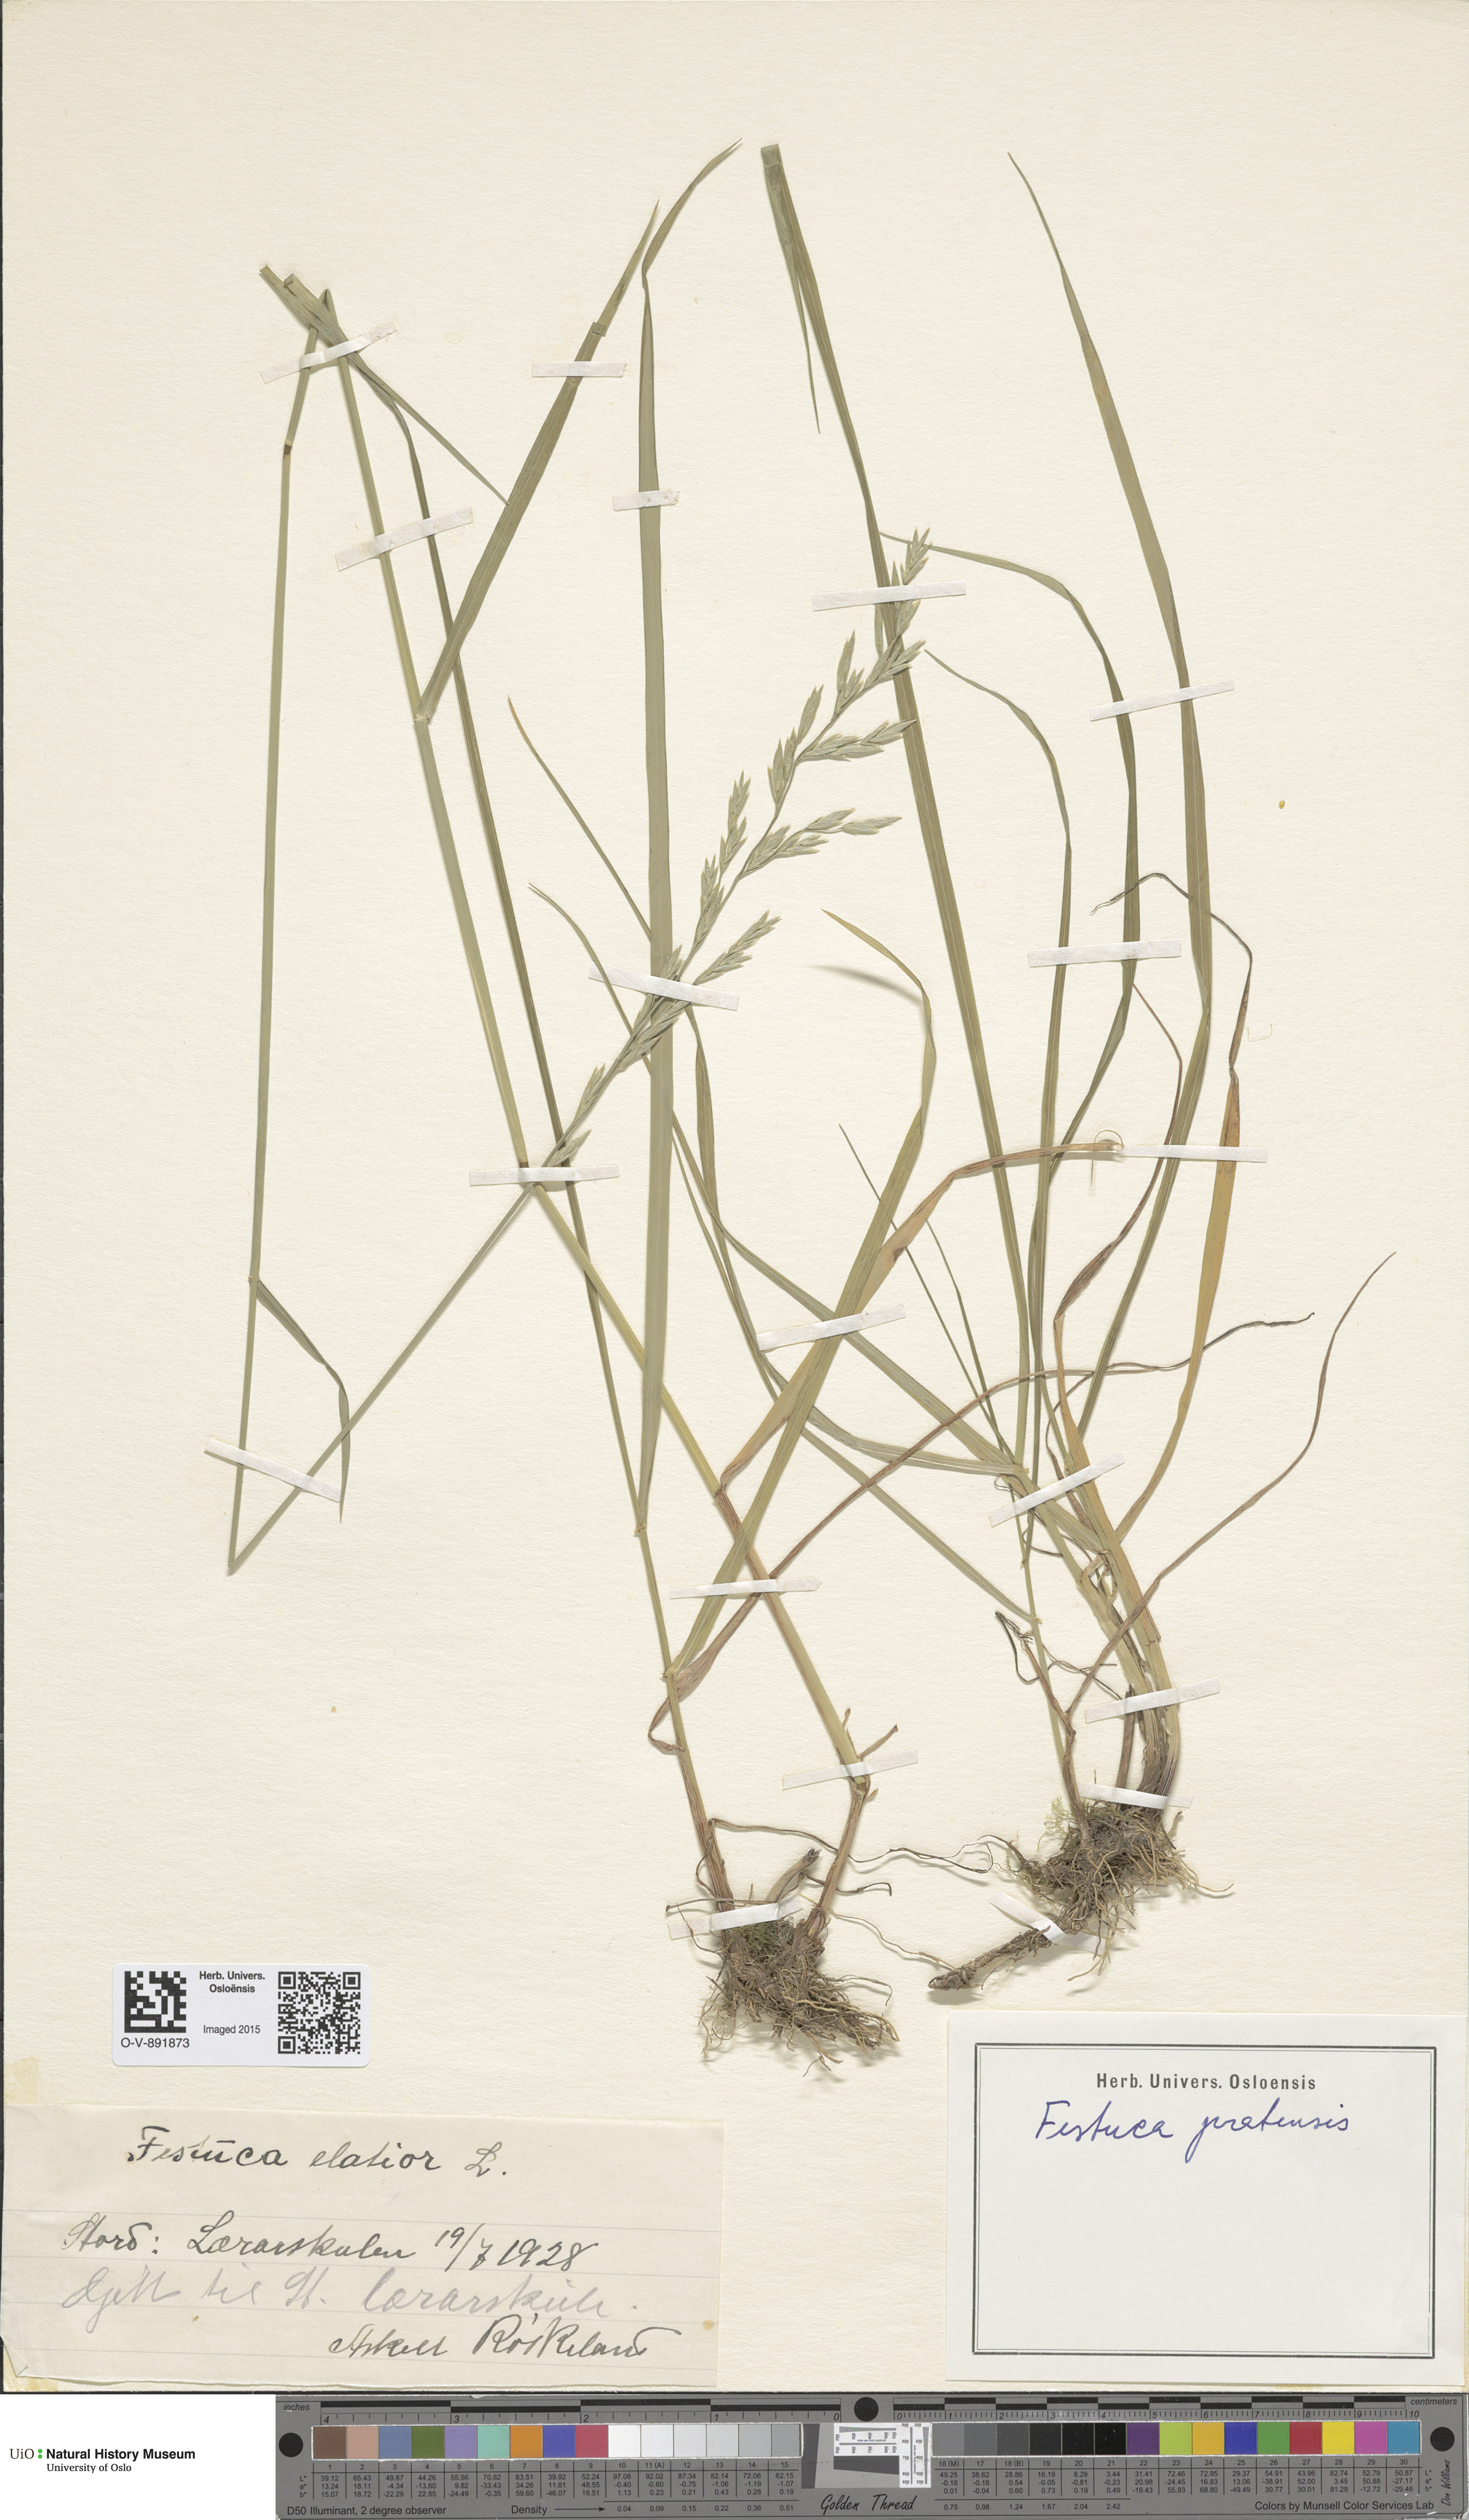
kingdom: Plantae
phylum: Tracheophyta
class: Liliopsida
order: Poales
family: Poaceae
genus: Lolium
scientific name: Lolium pratense
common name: Dover grass
